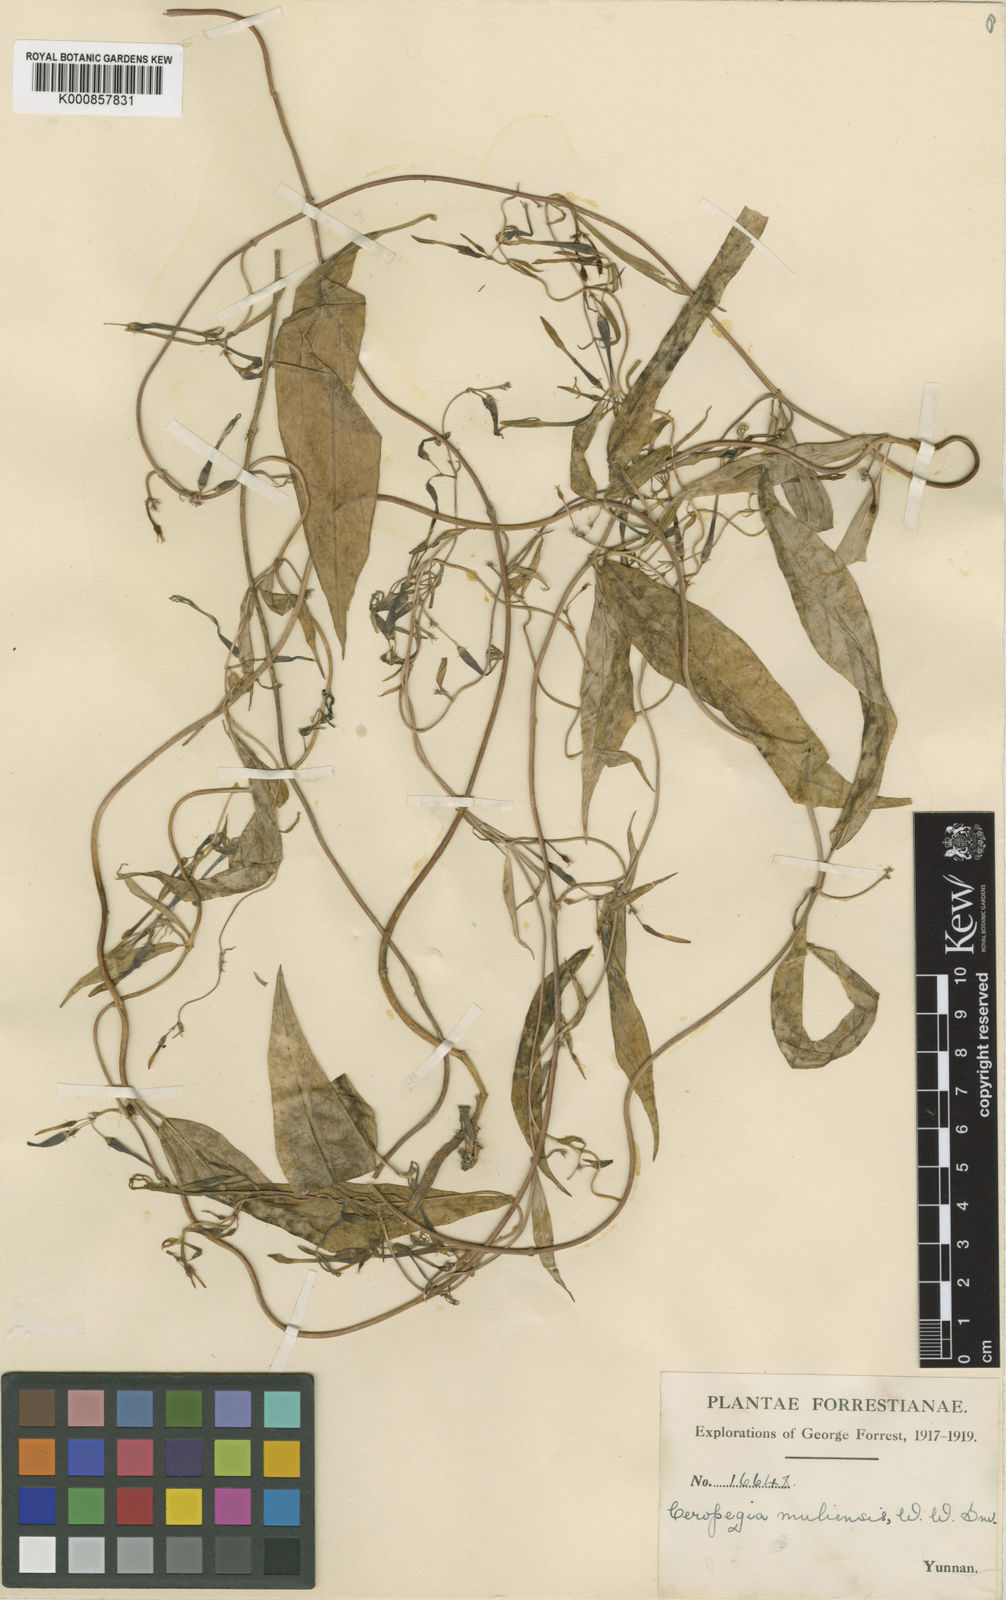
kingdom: Plantae
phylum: Tracheophyta
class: Magnoliopsida
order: Gentianales
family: Apocynaceae
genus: Ceropegia
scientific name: Ceropegia muliensis
